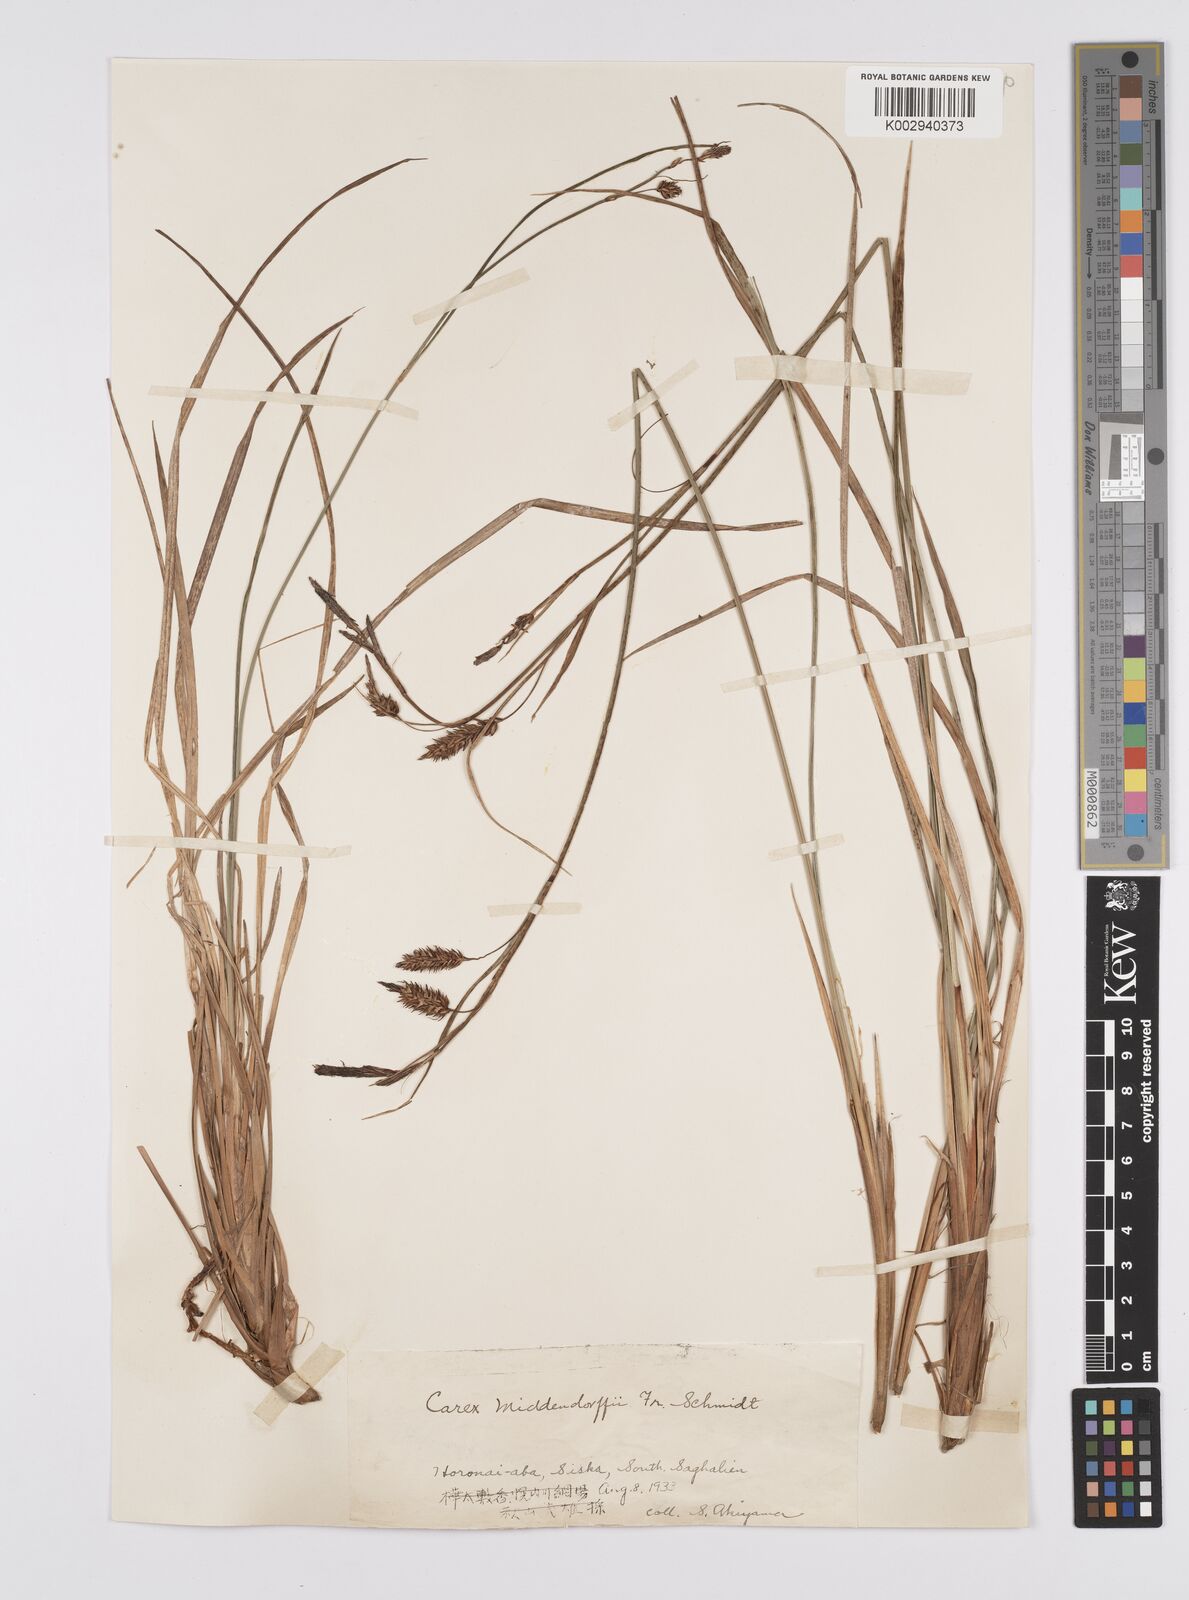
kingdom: Plantae
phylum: Tracheophyta
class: Liliopsida
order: Poales
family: Cyperaceae
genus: Carex
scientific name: Carex middendorffii
